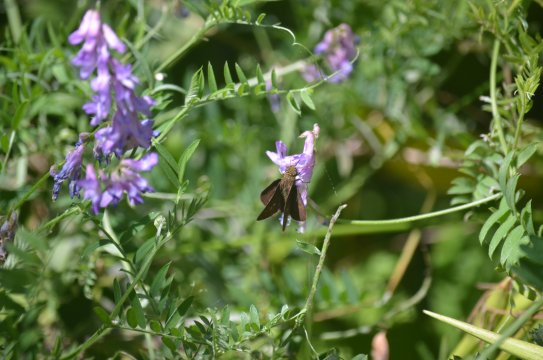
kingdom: Animalia
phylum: Arthropoda
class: Insecta
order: Lepidoptera
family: Hesperiidae
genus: Euphyes
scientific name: Euphyes vestris
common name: Dun Skipper
